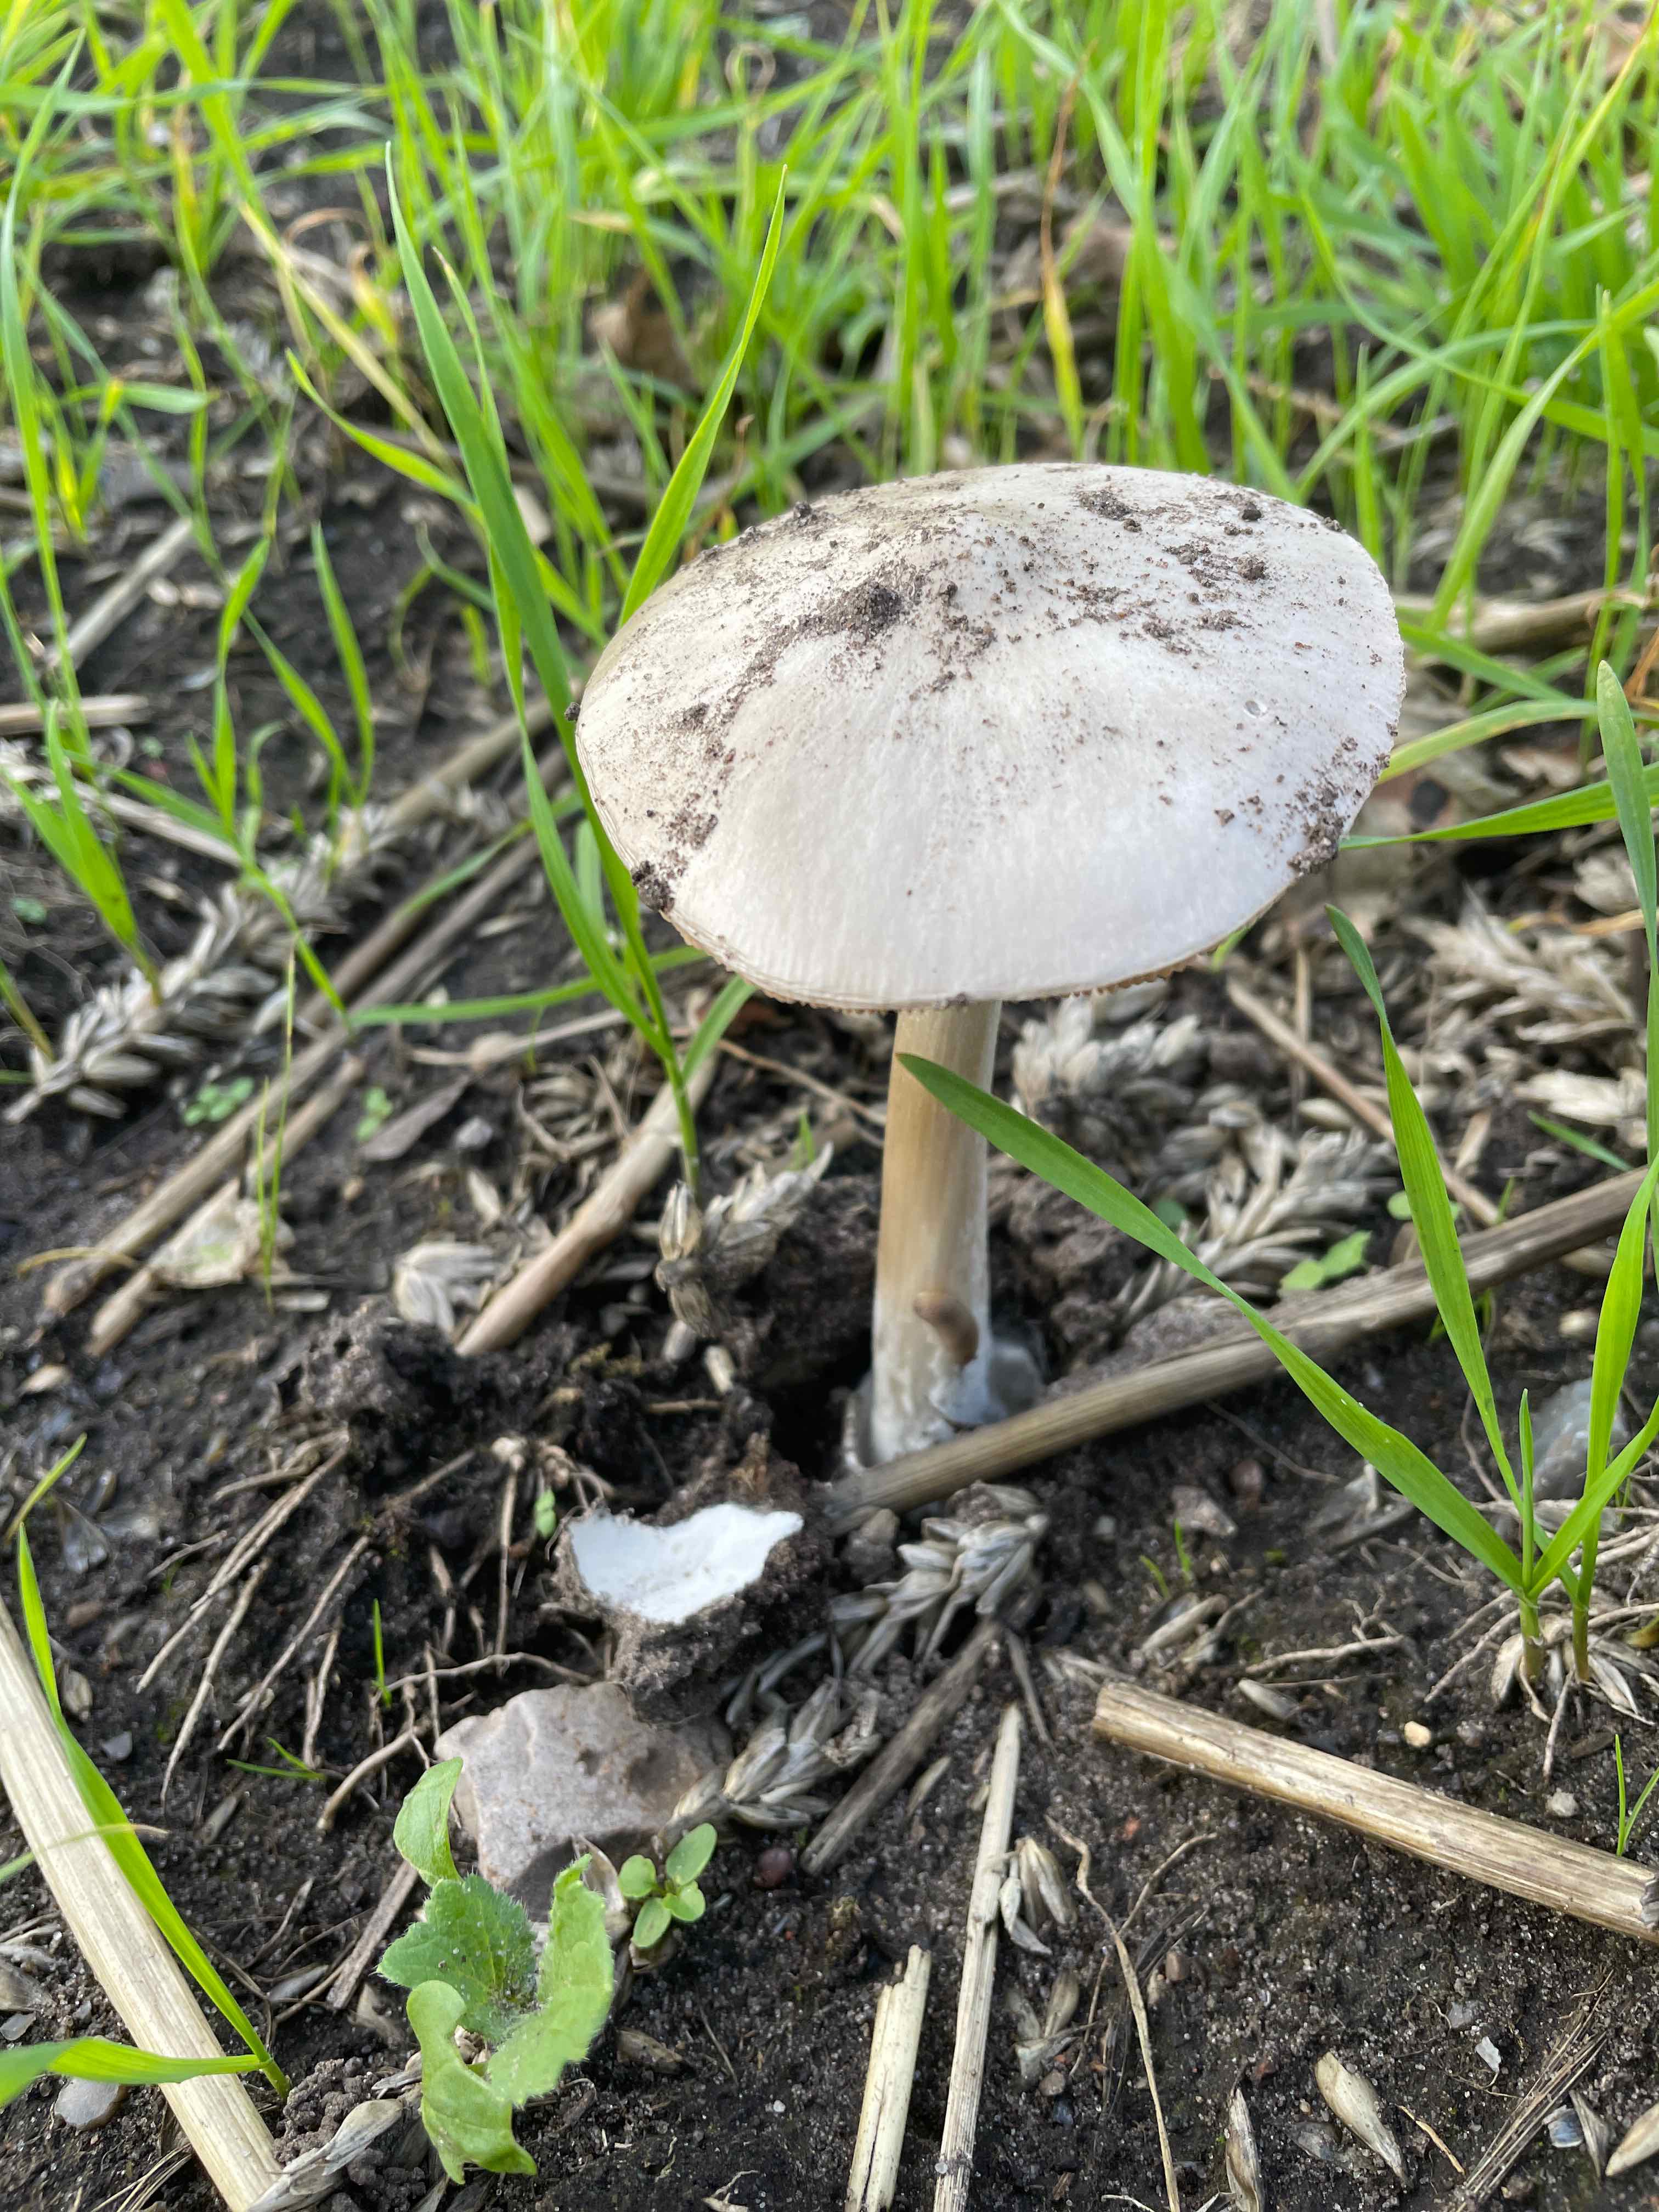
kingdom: Fungi
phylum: Basidiomycota
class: Agaricomycetes
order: Agaricales
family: Pluteaceae
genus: Volvopluteus
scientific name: Volvopluteus gloiocephalus
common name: høj posesvamp
